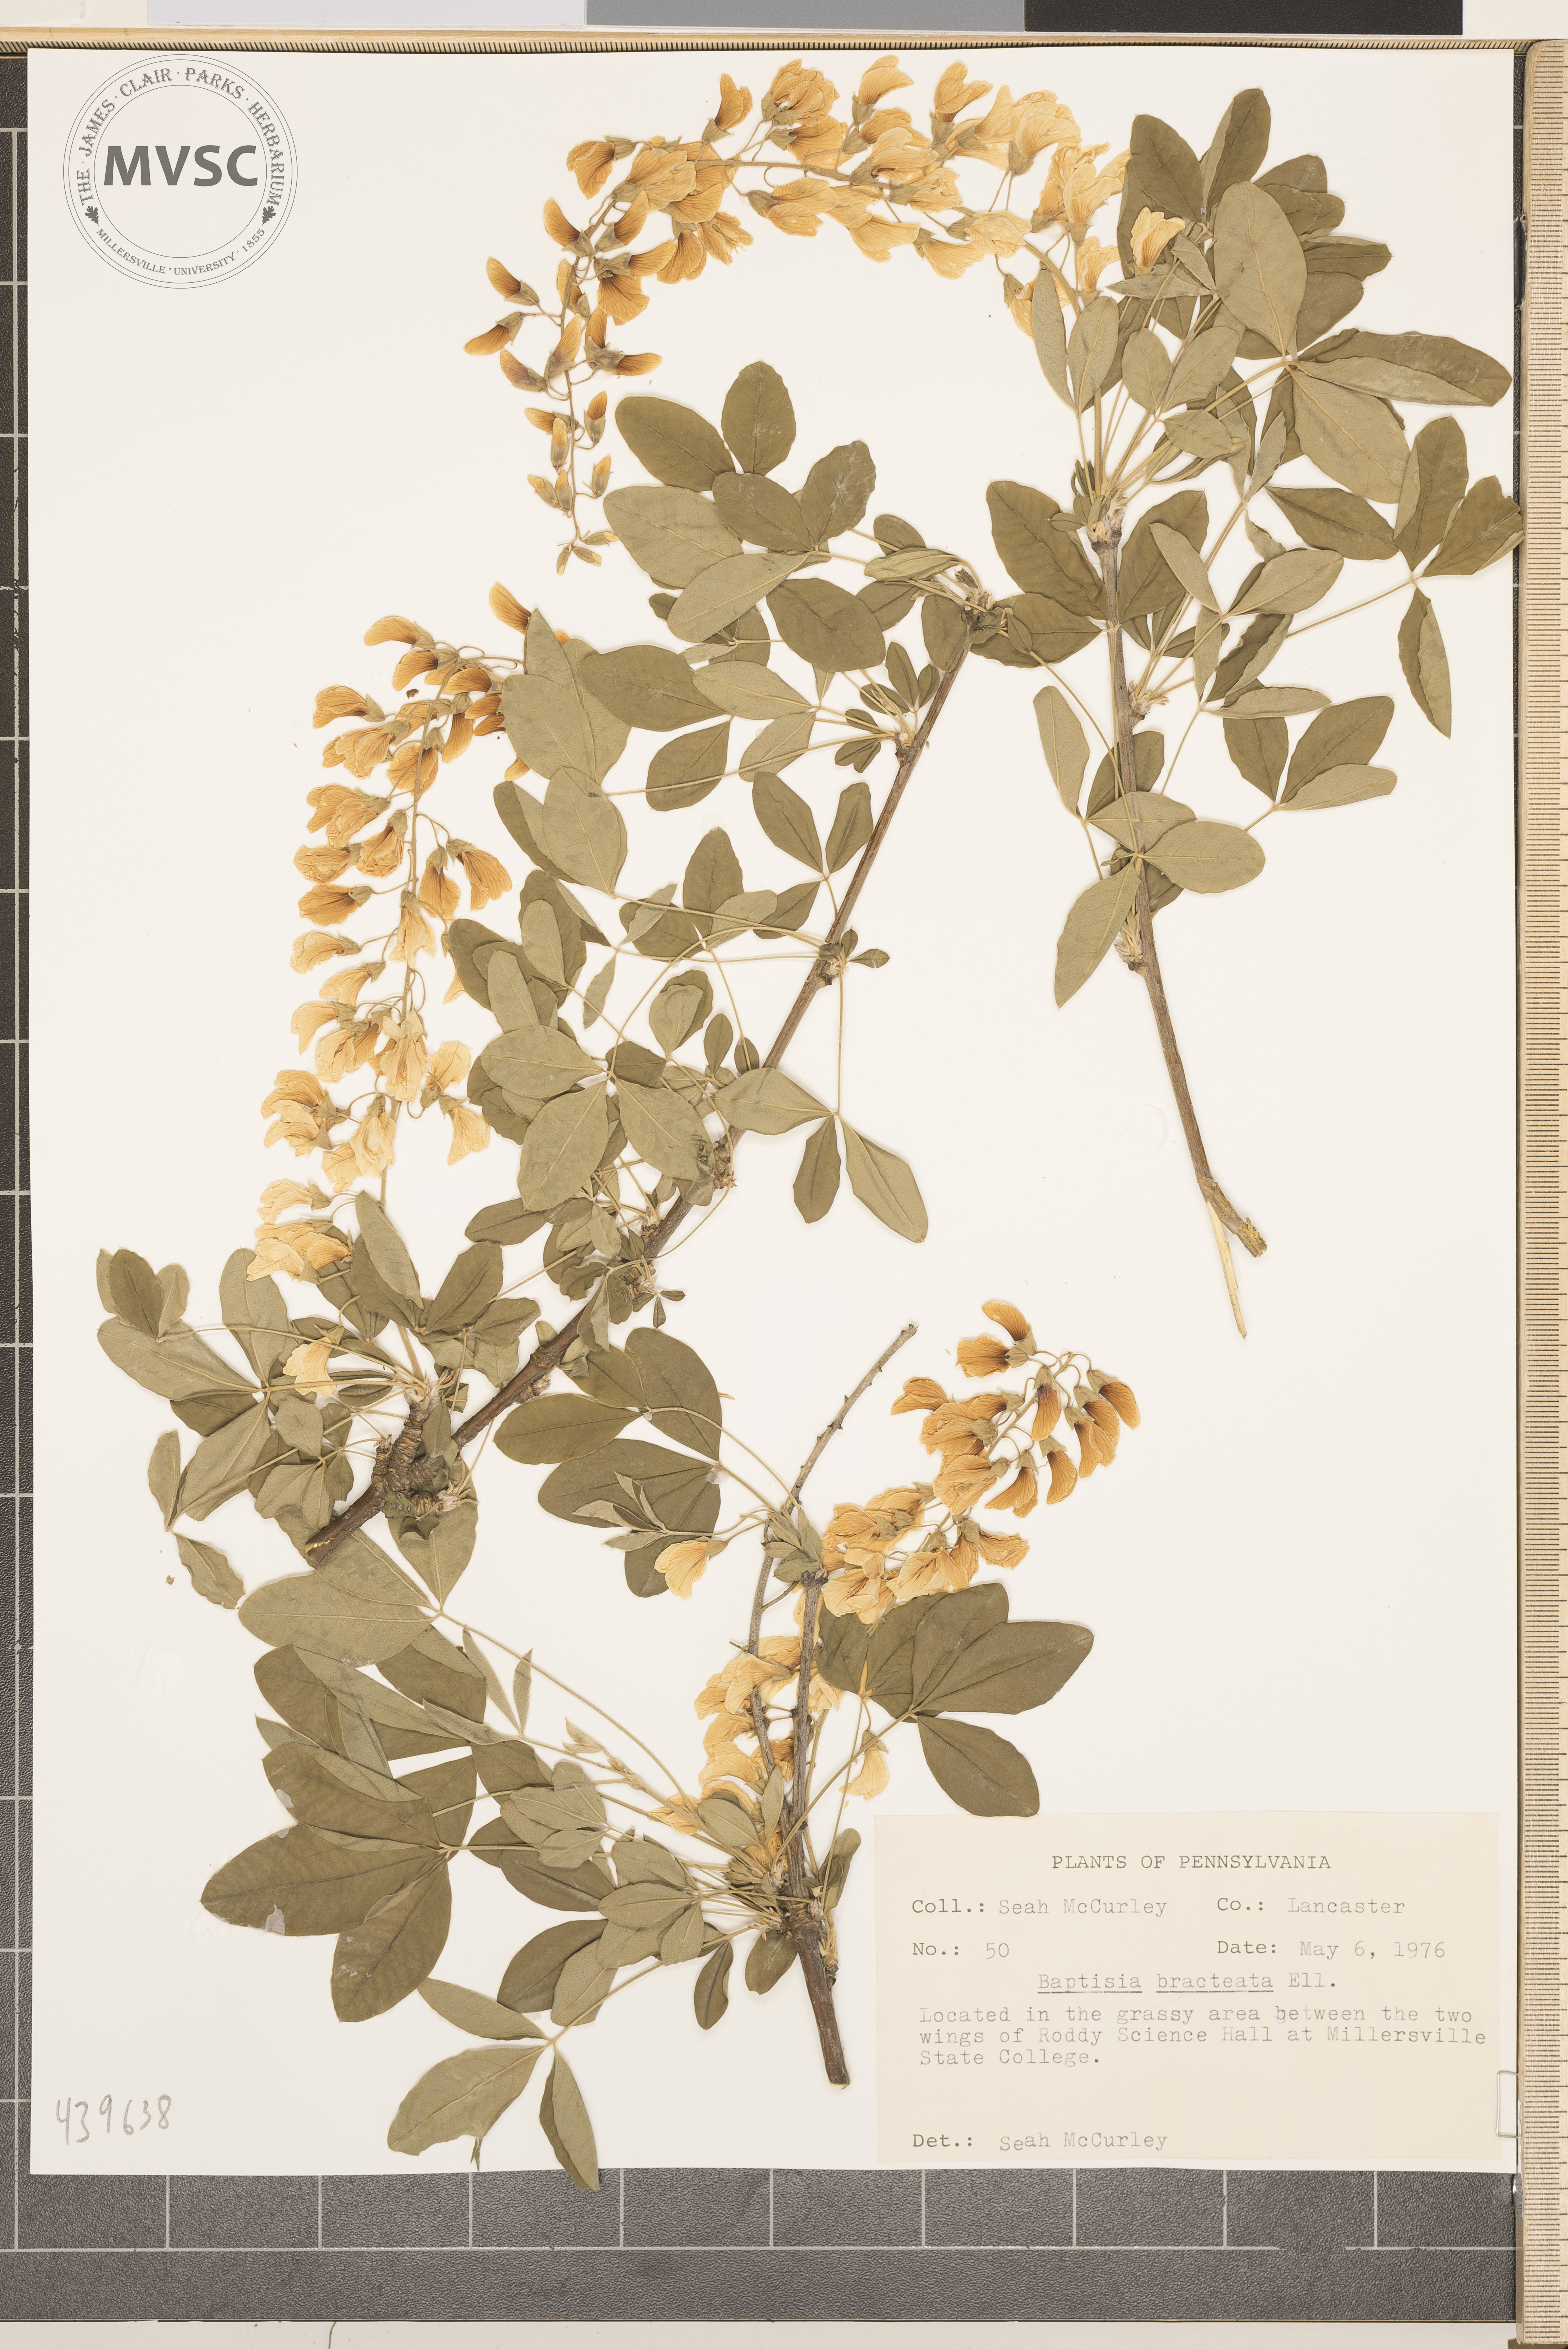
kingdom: Plantae
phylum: Tracheophyta
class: Magnoliopsida
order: Fabales
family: Fabaceae
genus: Baptisia
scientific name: Baptisia bracteata
